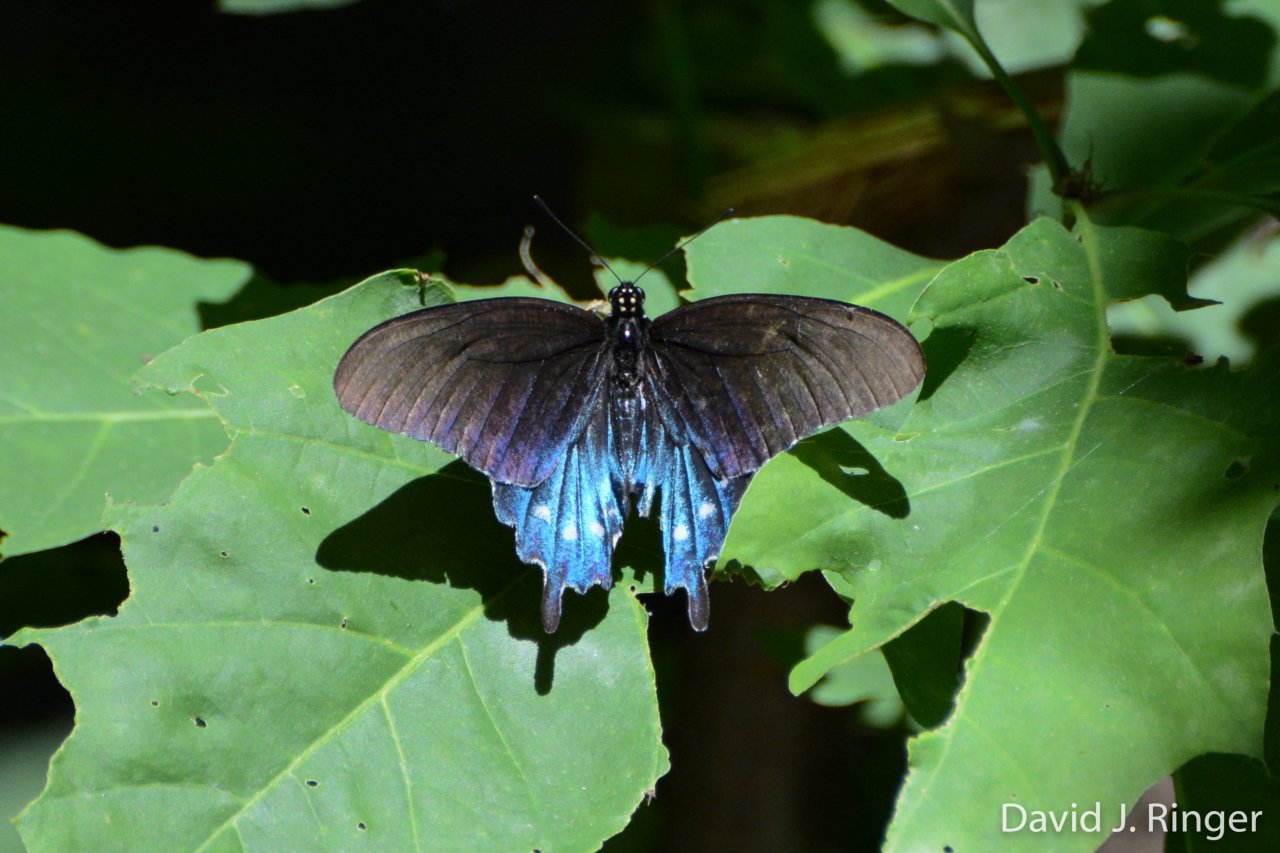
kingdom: Animalia
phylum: Arthropoda
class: Insecta
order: Lepidoptera
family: Papilionidae
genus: Battus
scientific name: Battus philenor
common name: Pipevine Swallowtail
